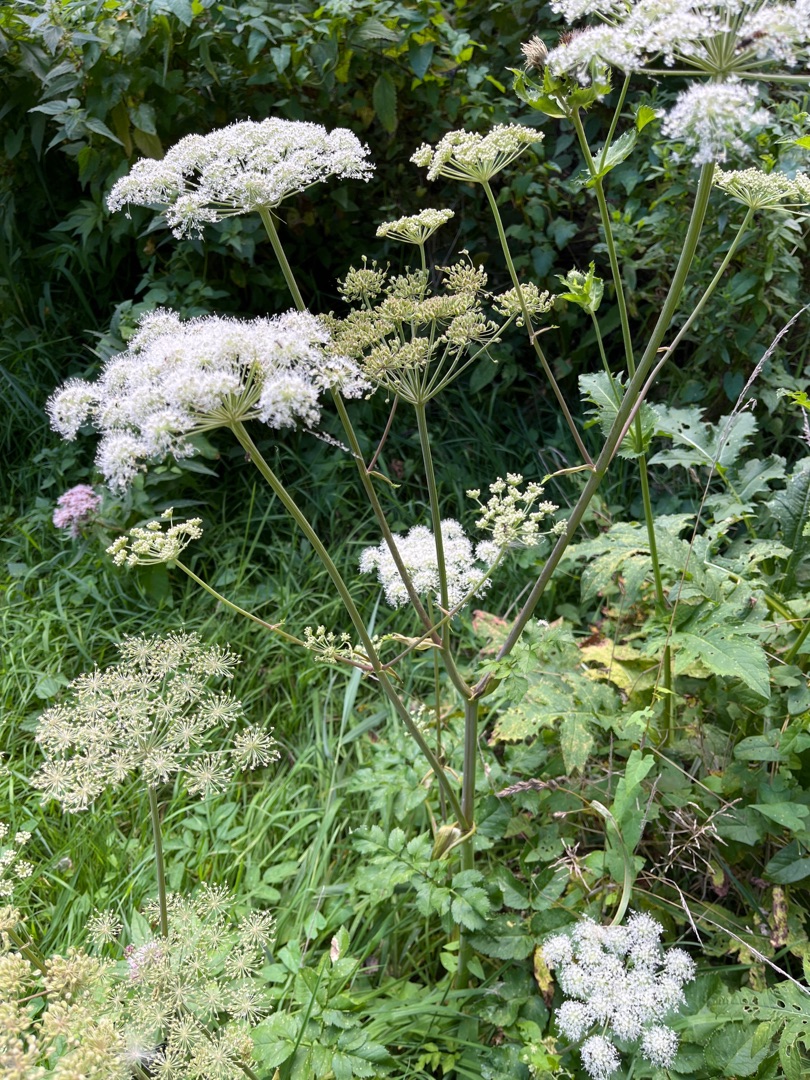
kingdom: Plantae
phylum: Tracheophyta
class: Magnoliopsida
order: Apiales
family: Apiaceae
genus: Angelica
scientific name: Angelica sylvestris
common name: Angelik
